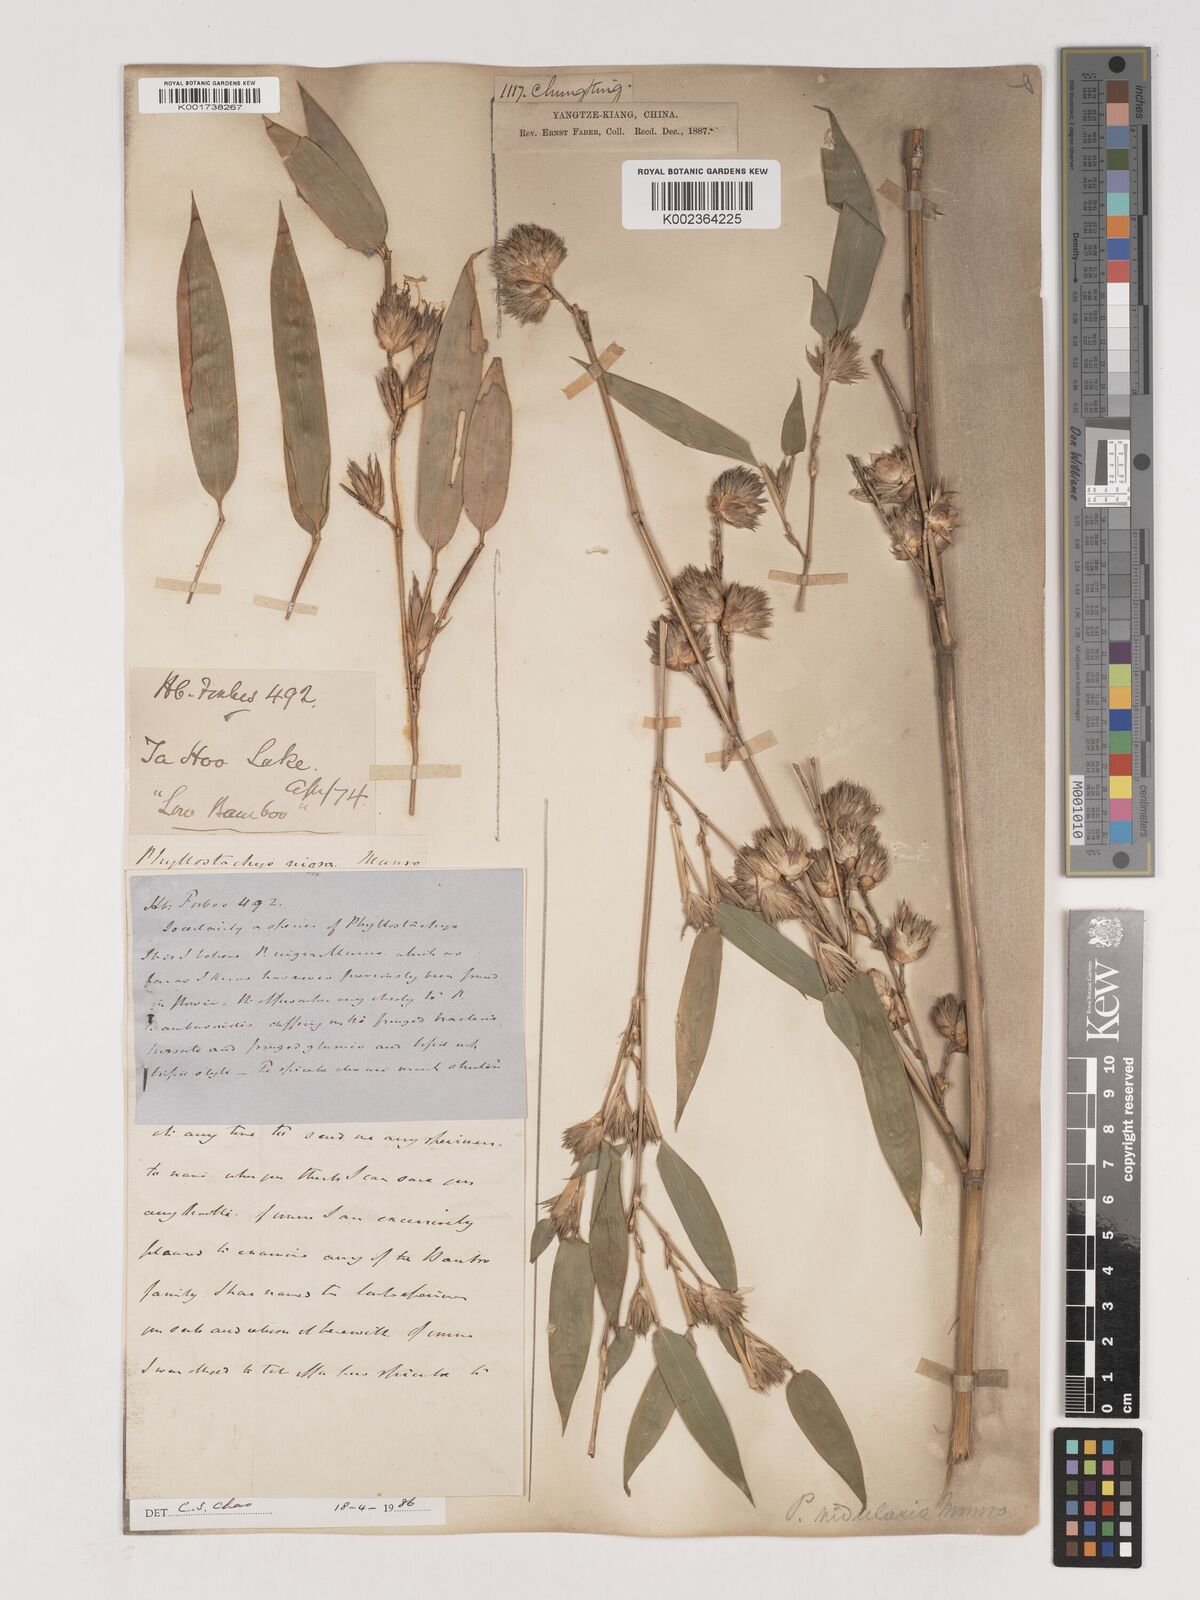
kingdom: Plantae
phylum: Tracheophyta
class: Liliopsida
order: Poales
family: Poaceae
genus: Phyllostachys
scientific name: Phyllostachys nidularia
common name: Broom bamboo
